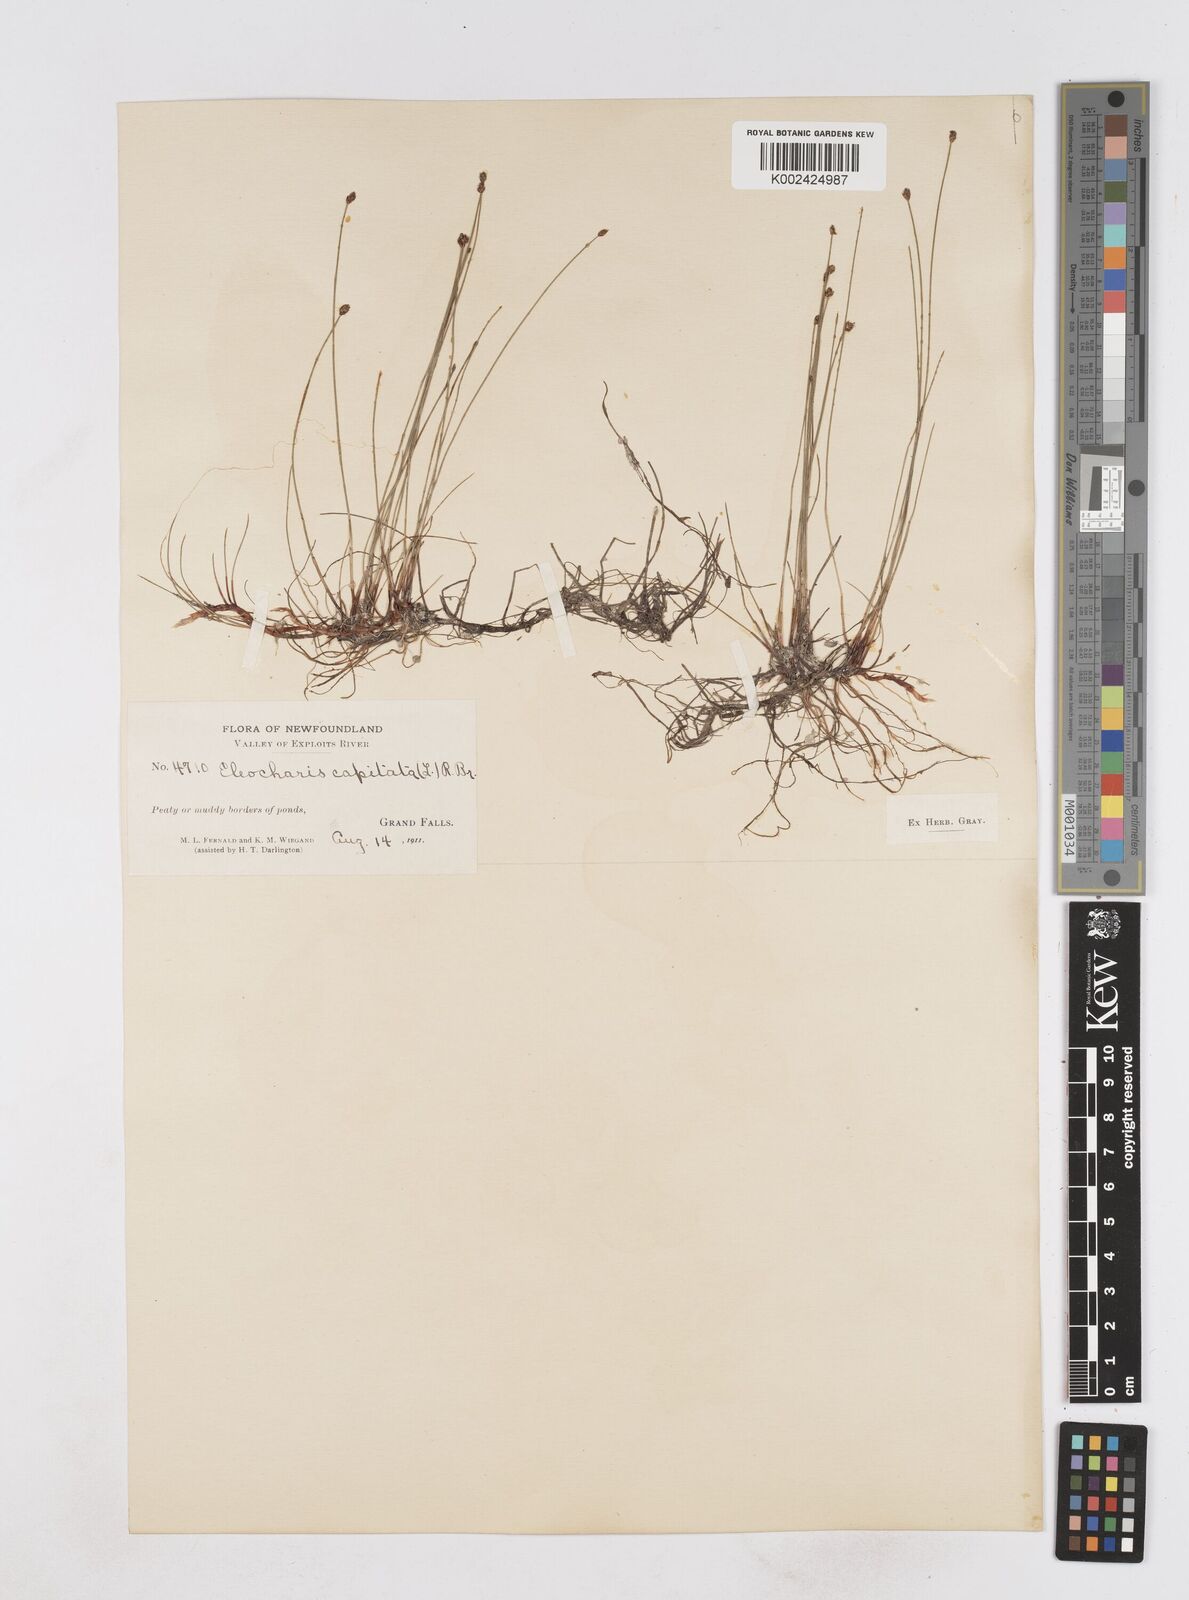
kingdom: Plantae
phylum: Tracheophyta
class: Liliopsida
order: Poales
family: Cyperaceae
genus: Eleocharis
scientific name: Eleocharis geniculata
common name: Canada spikesedge
